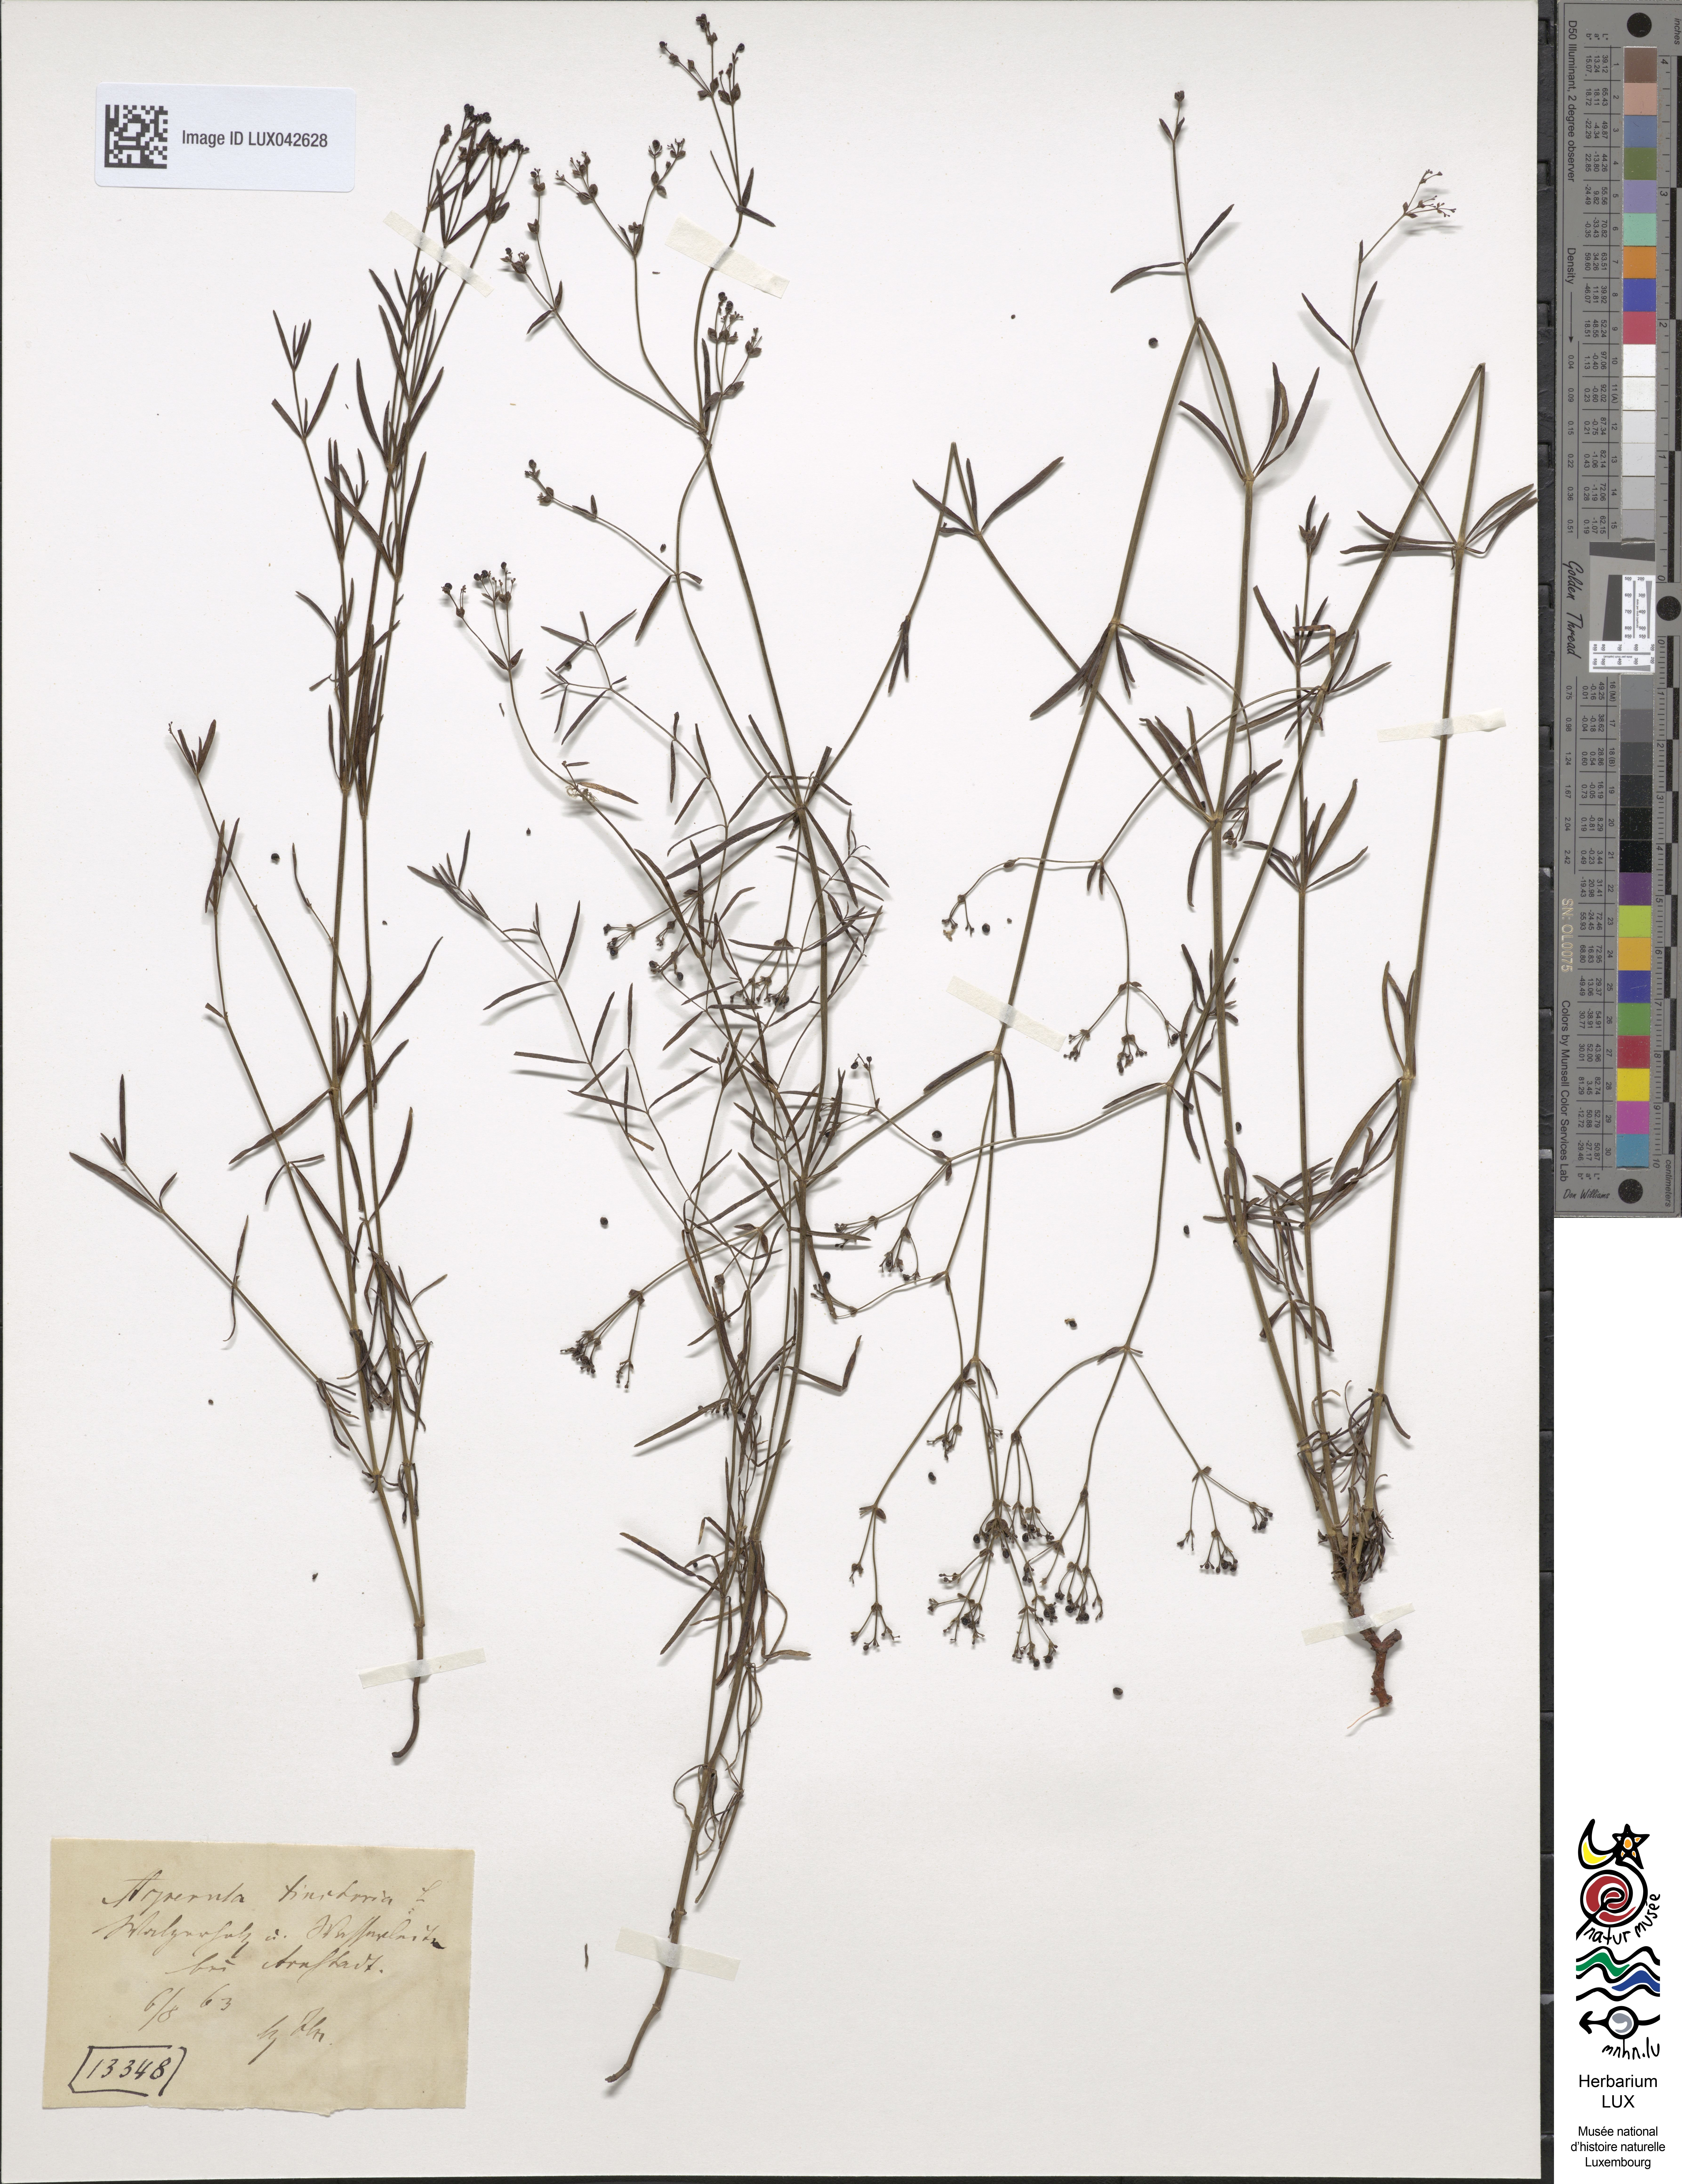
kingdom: Plantae
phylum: Tracheophyta
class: Magnoliopsida
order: Gentianales
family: Rubiaceae
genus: Asperula
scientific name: Asperula tinctoria
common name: Dyer's woodruff
